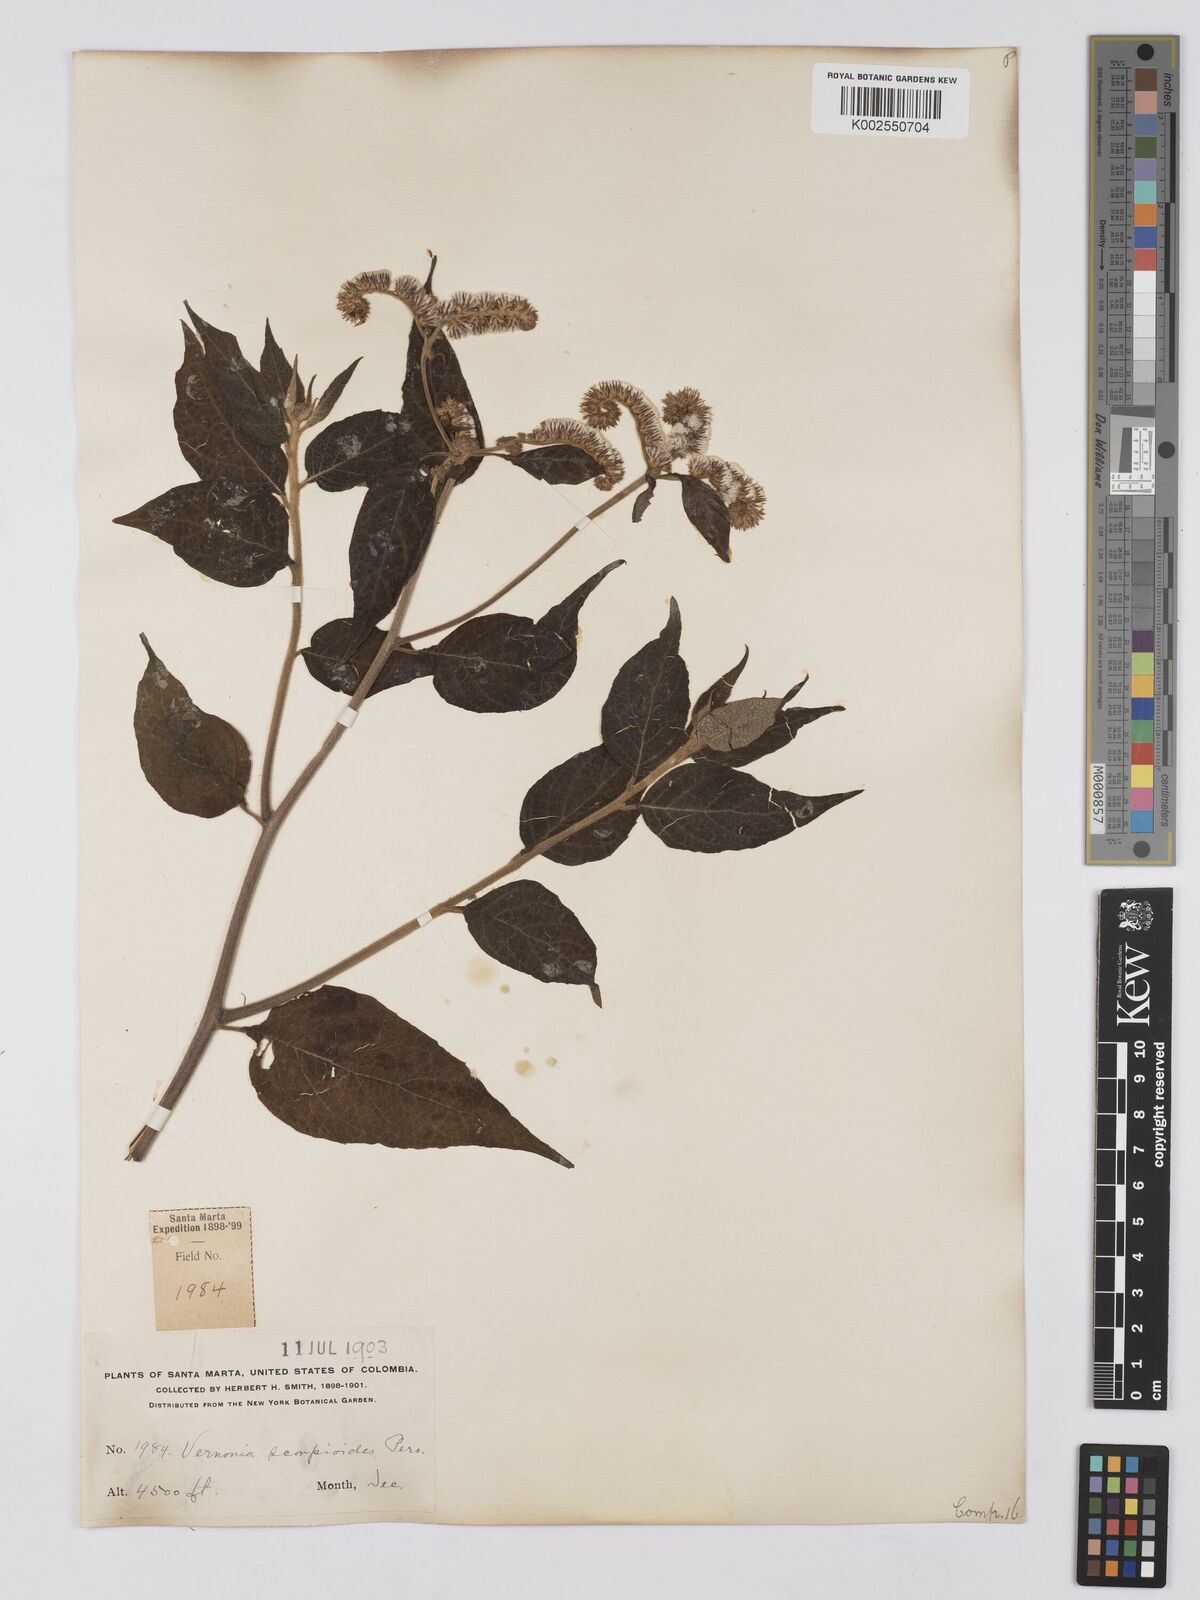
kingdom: Plantae
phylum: Tracheophyta
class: Magnoliopsida
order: Asterales
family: Asteraceae
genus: Cyrtocymura
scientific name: Cyrtocymura scorpioides
